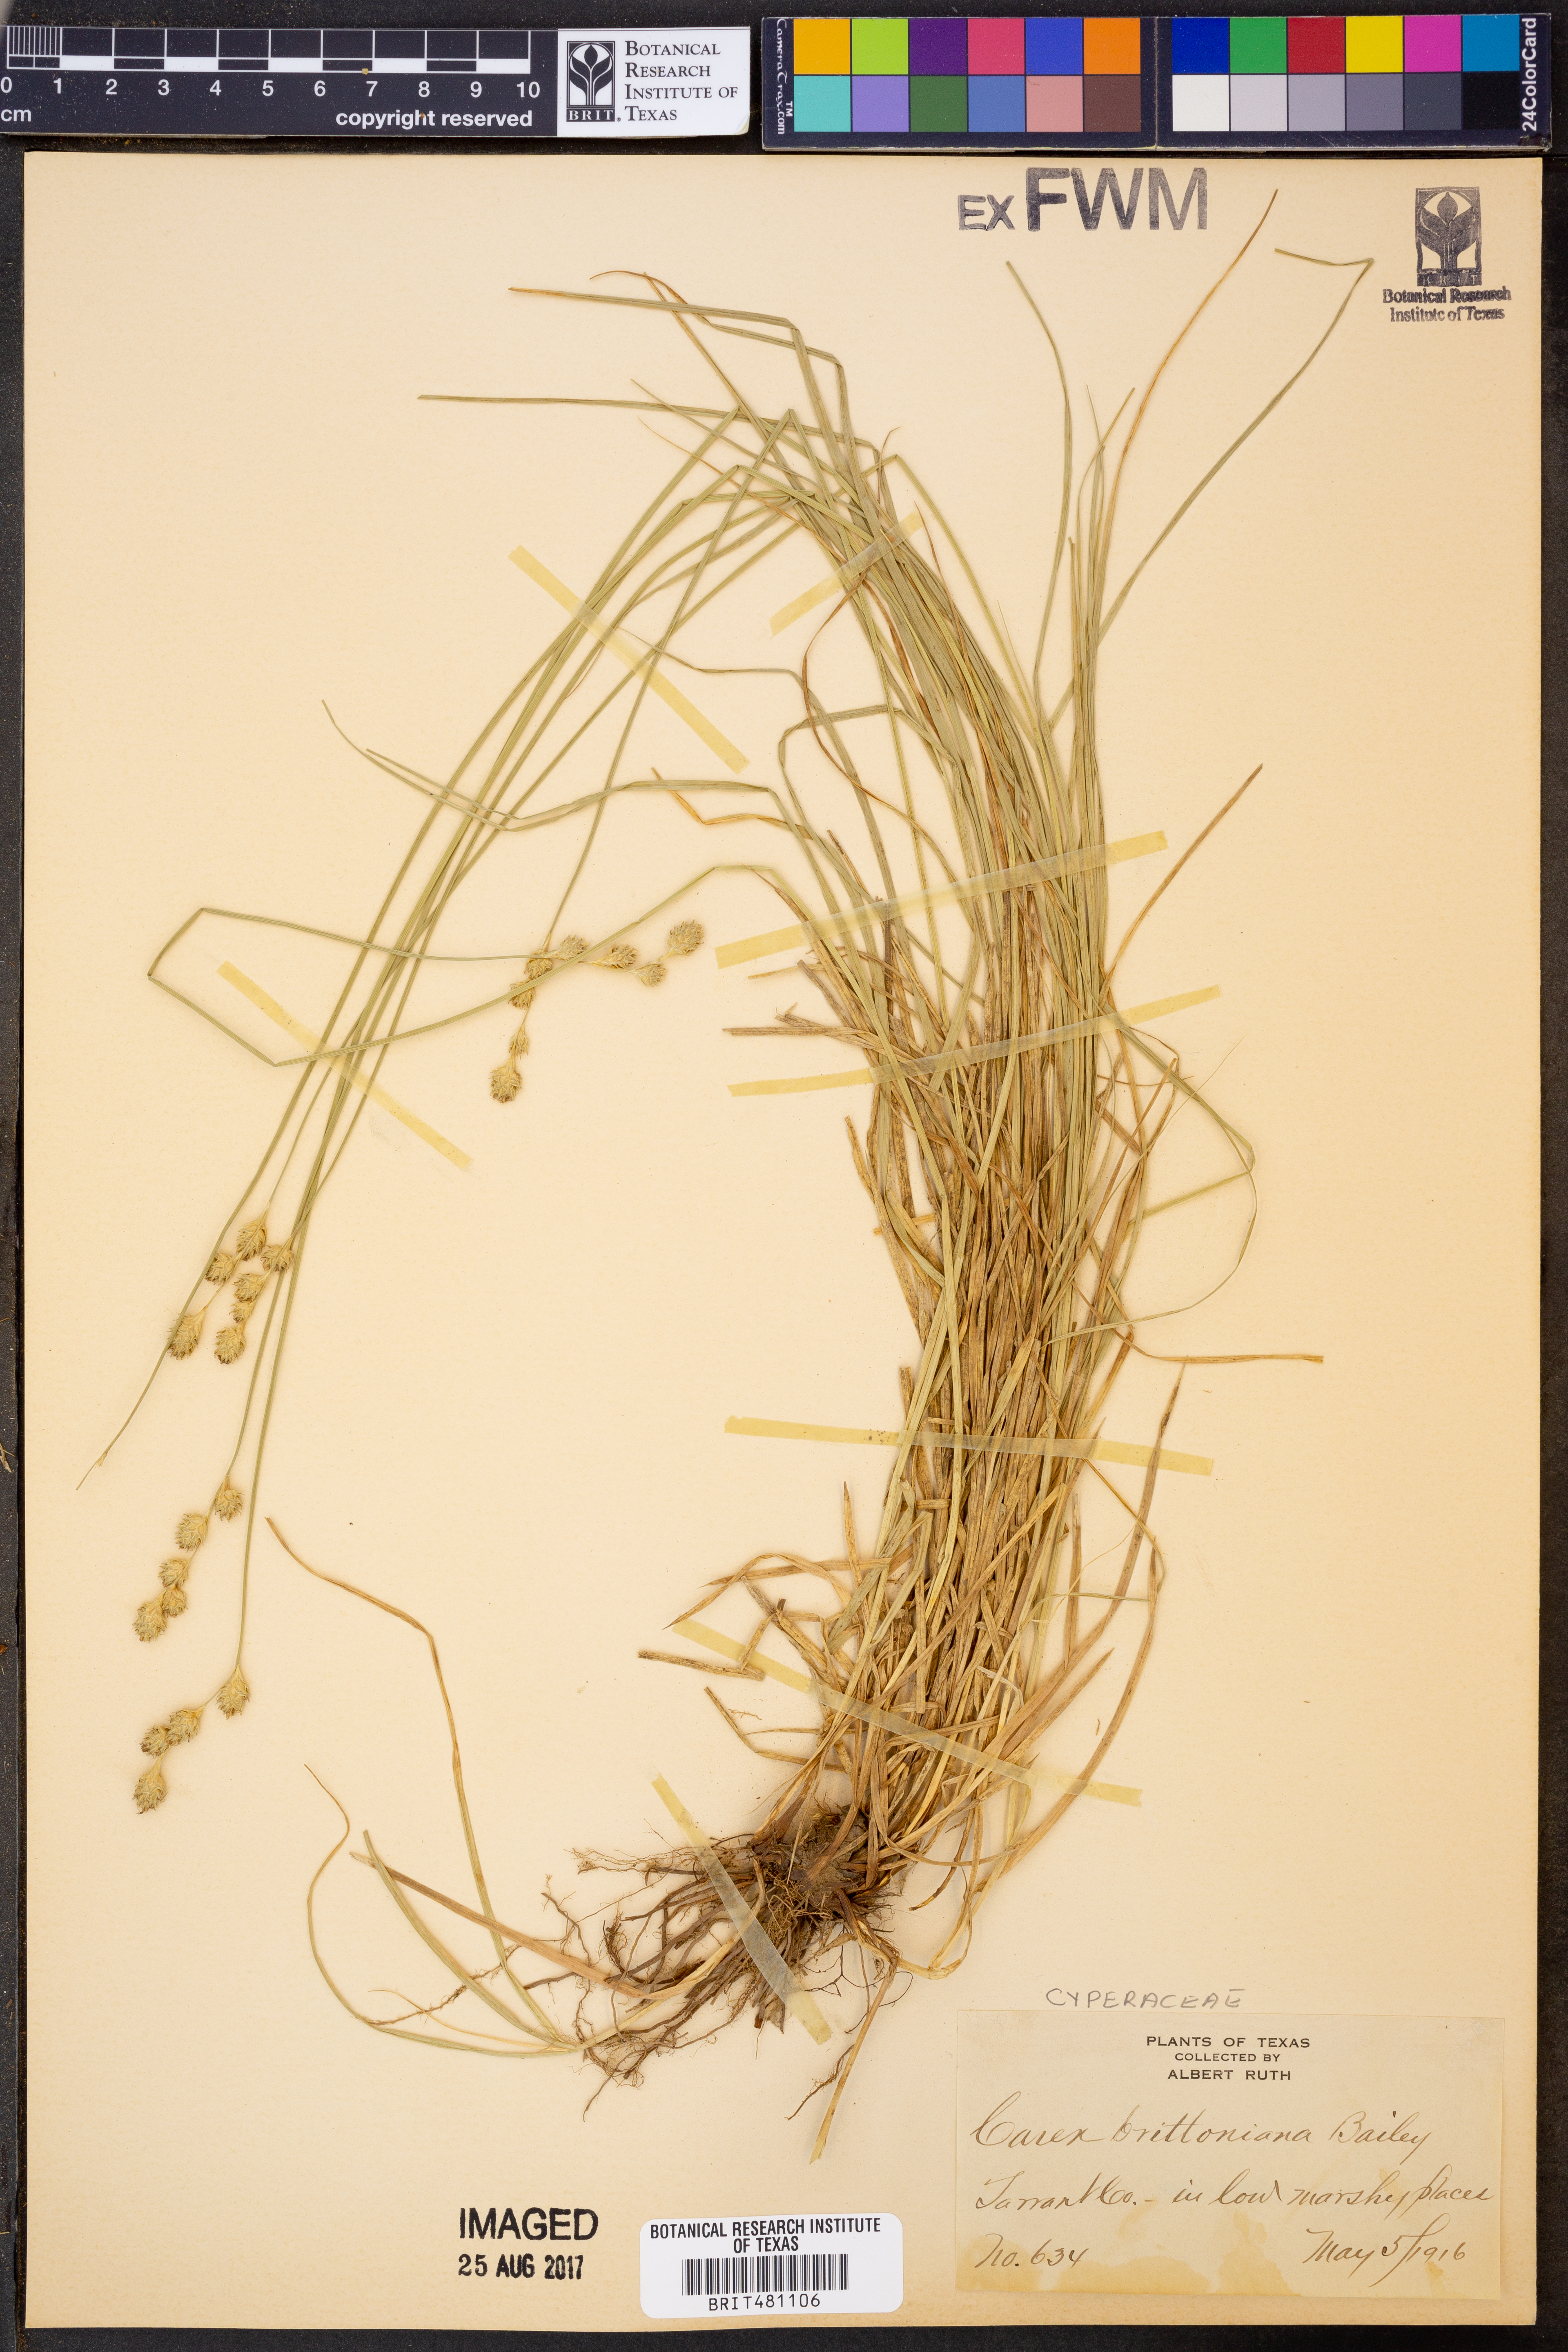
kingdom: Plantae
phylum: Tracheophyta
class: Liliopsida
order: Poales
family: Cyperaceae
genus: Carex
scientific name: Carex tetrastachya
